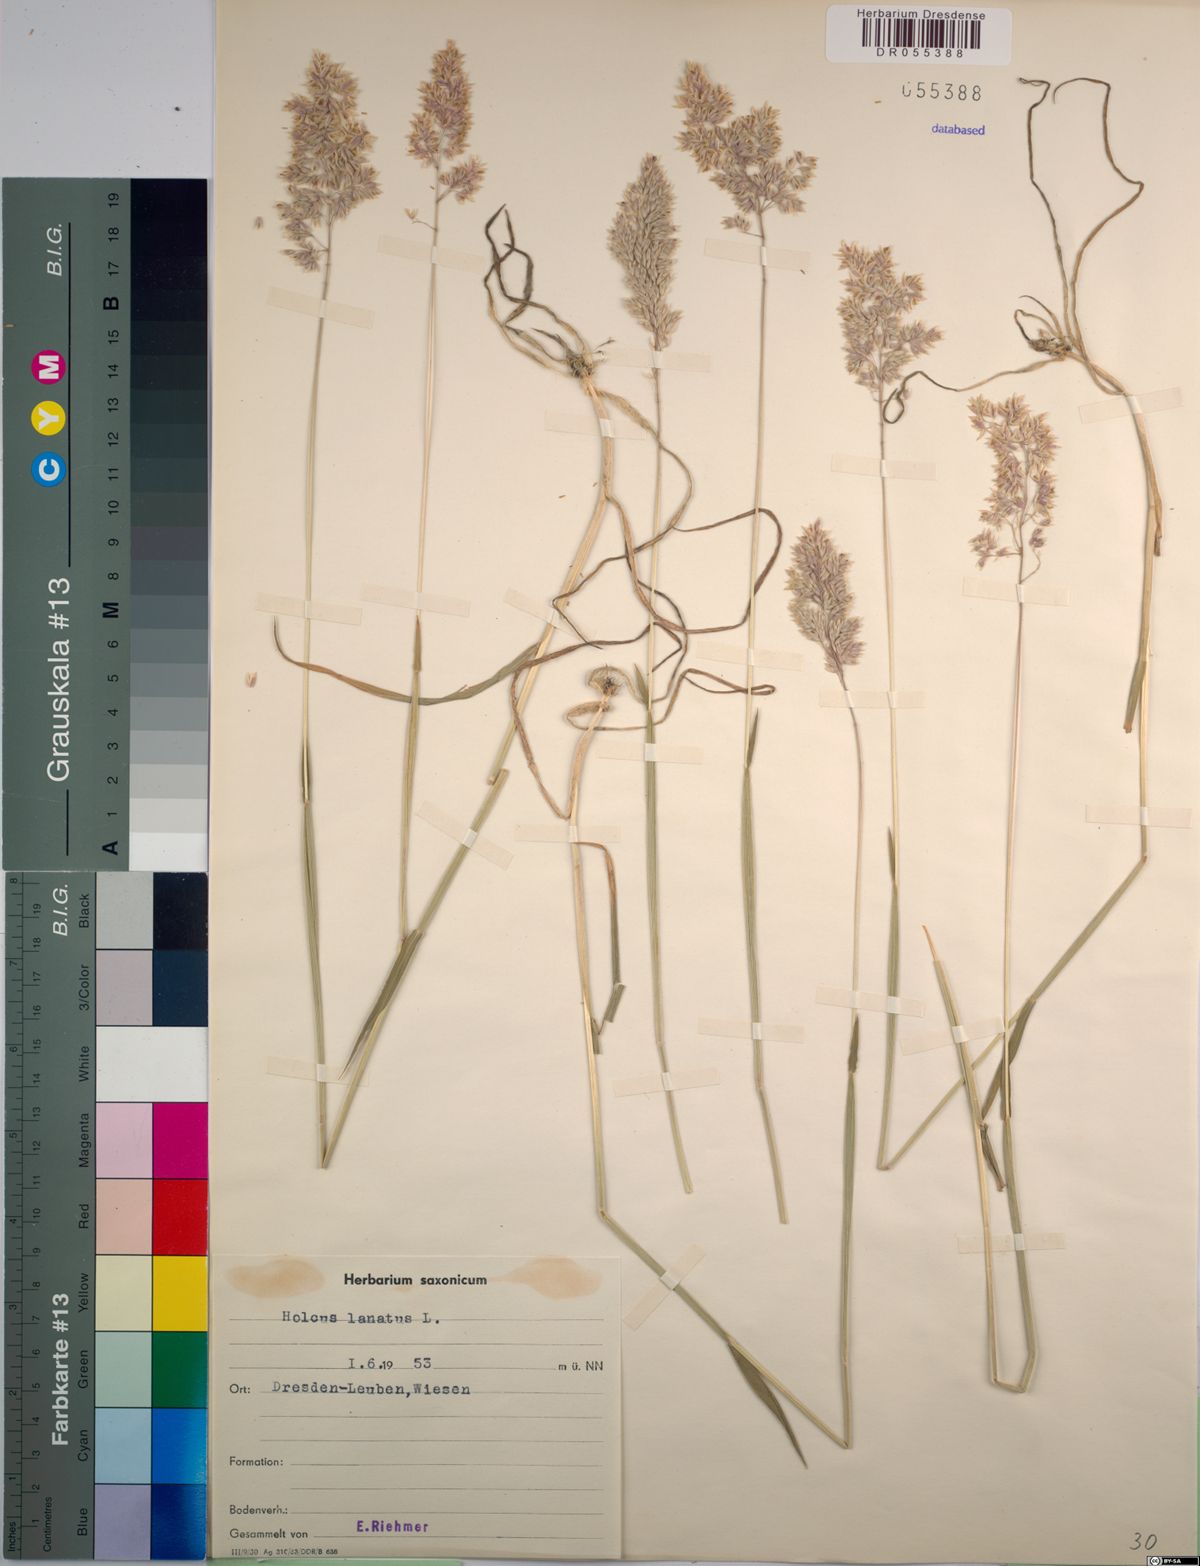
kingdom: Plantae
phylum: Tracheophyta
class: Liliopsida
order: Poales
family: Poaceae
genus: Holcus
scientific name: Holcus lanatus
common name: Yorkshire-fog
